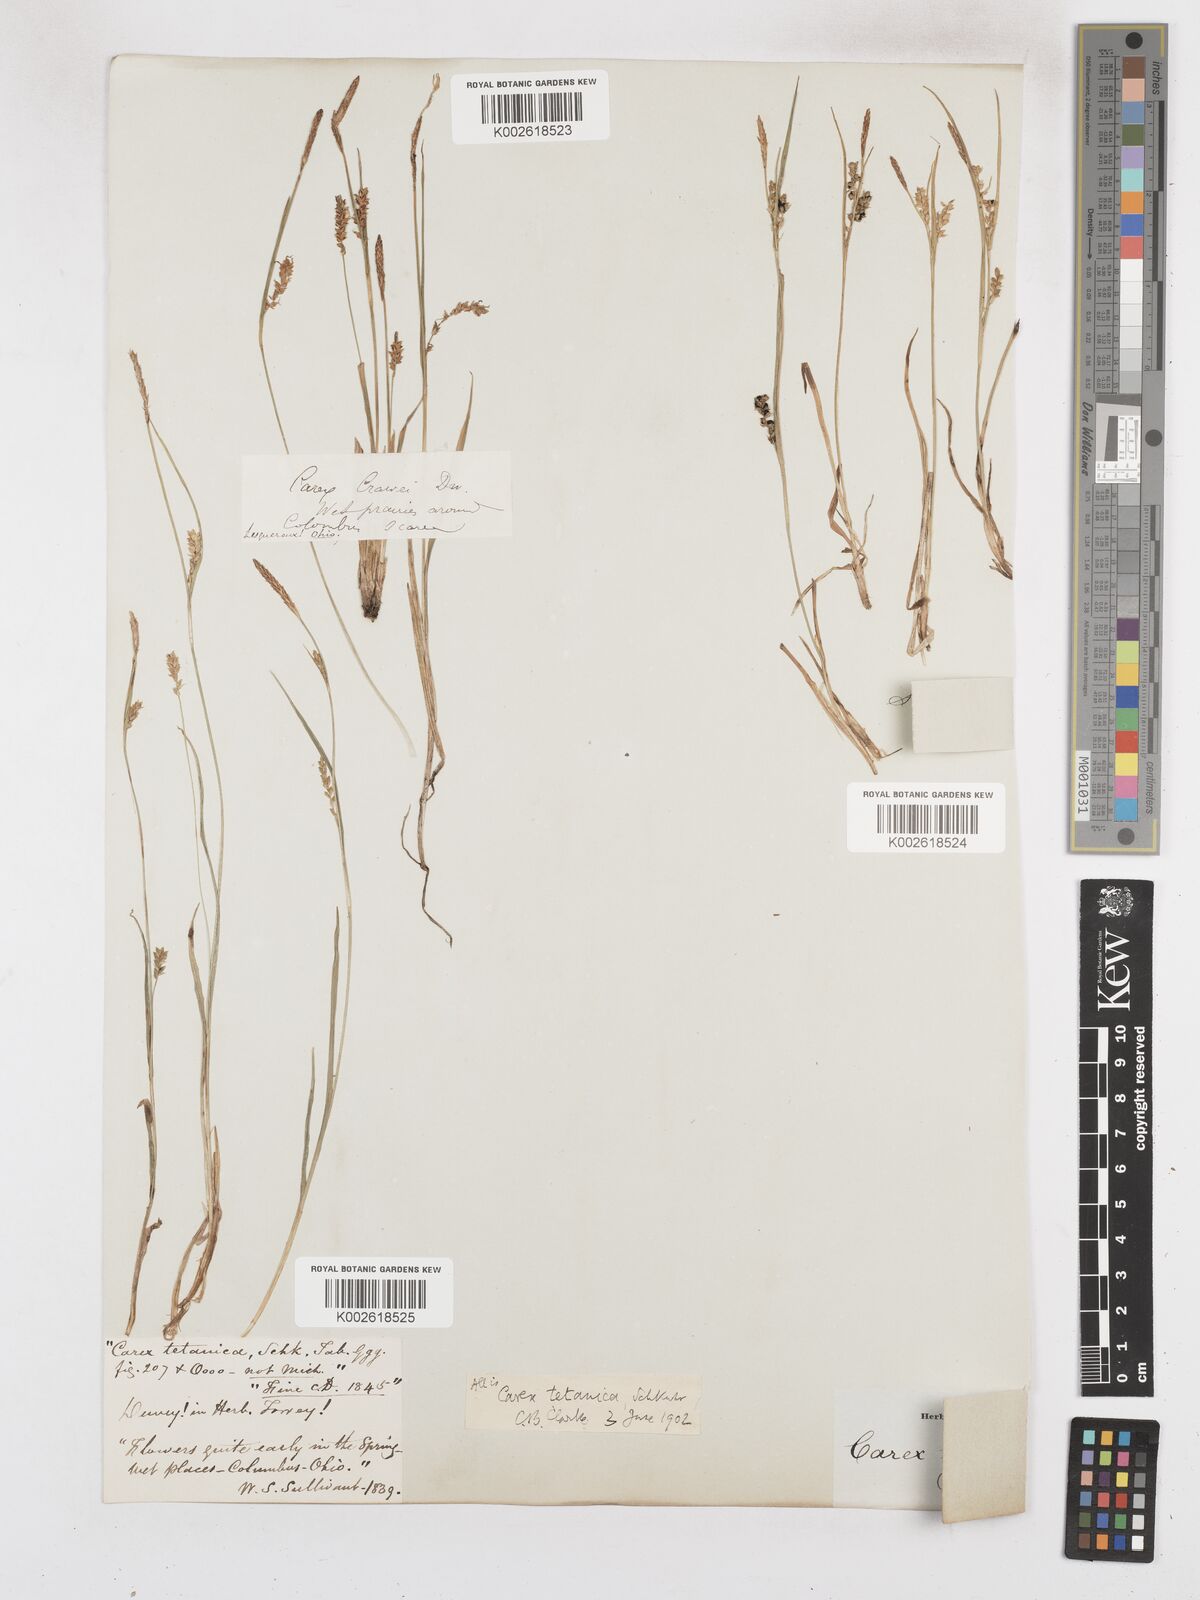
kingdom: Plantae
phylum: Tracheophyta
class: Liliopsida
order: Poales
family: Cyperaceae
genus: Carex
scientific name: Carex tetanica
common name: Rigid sedge
